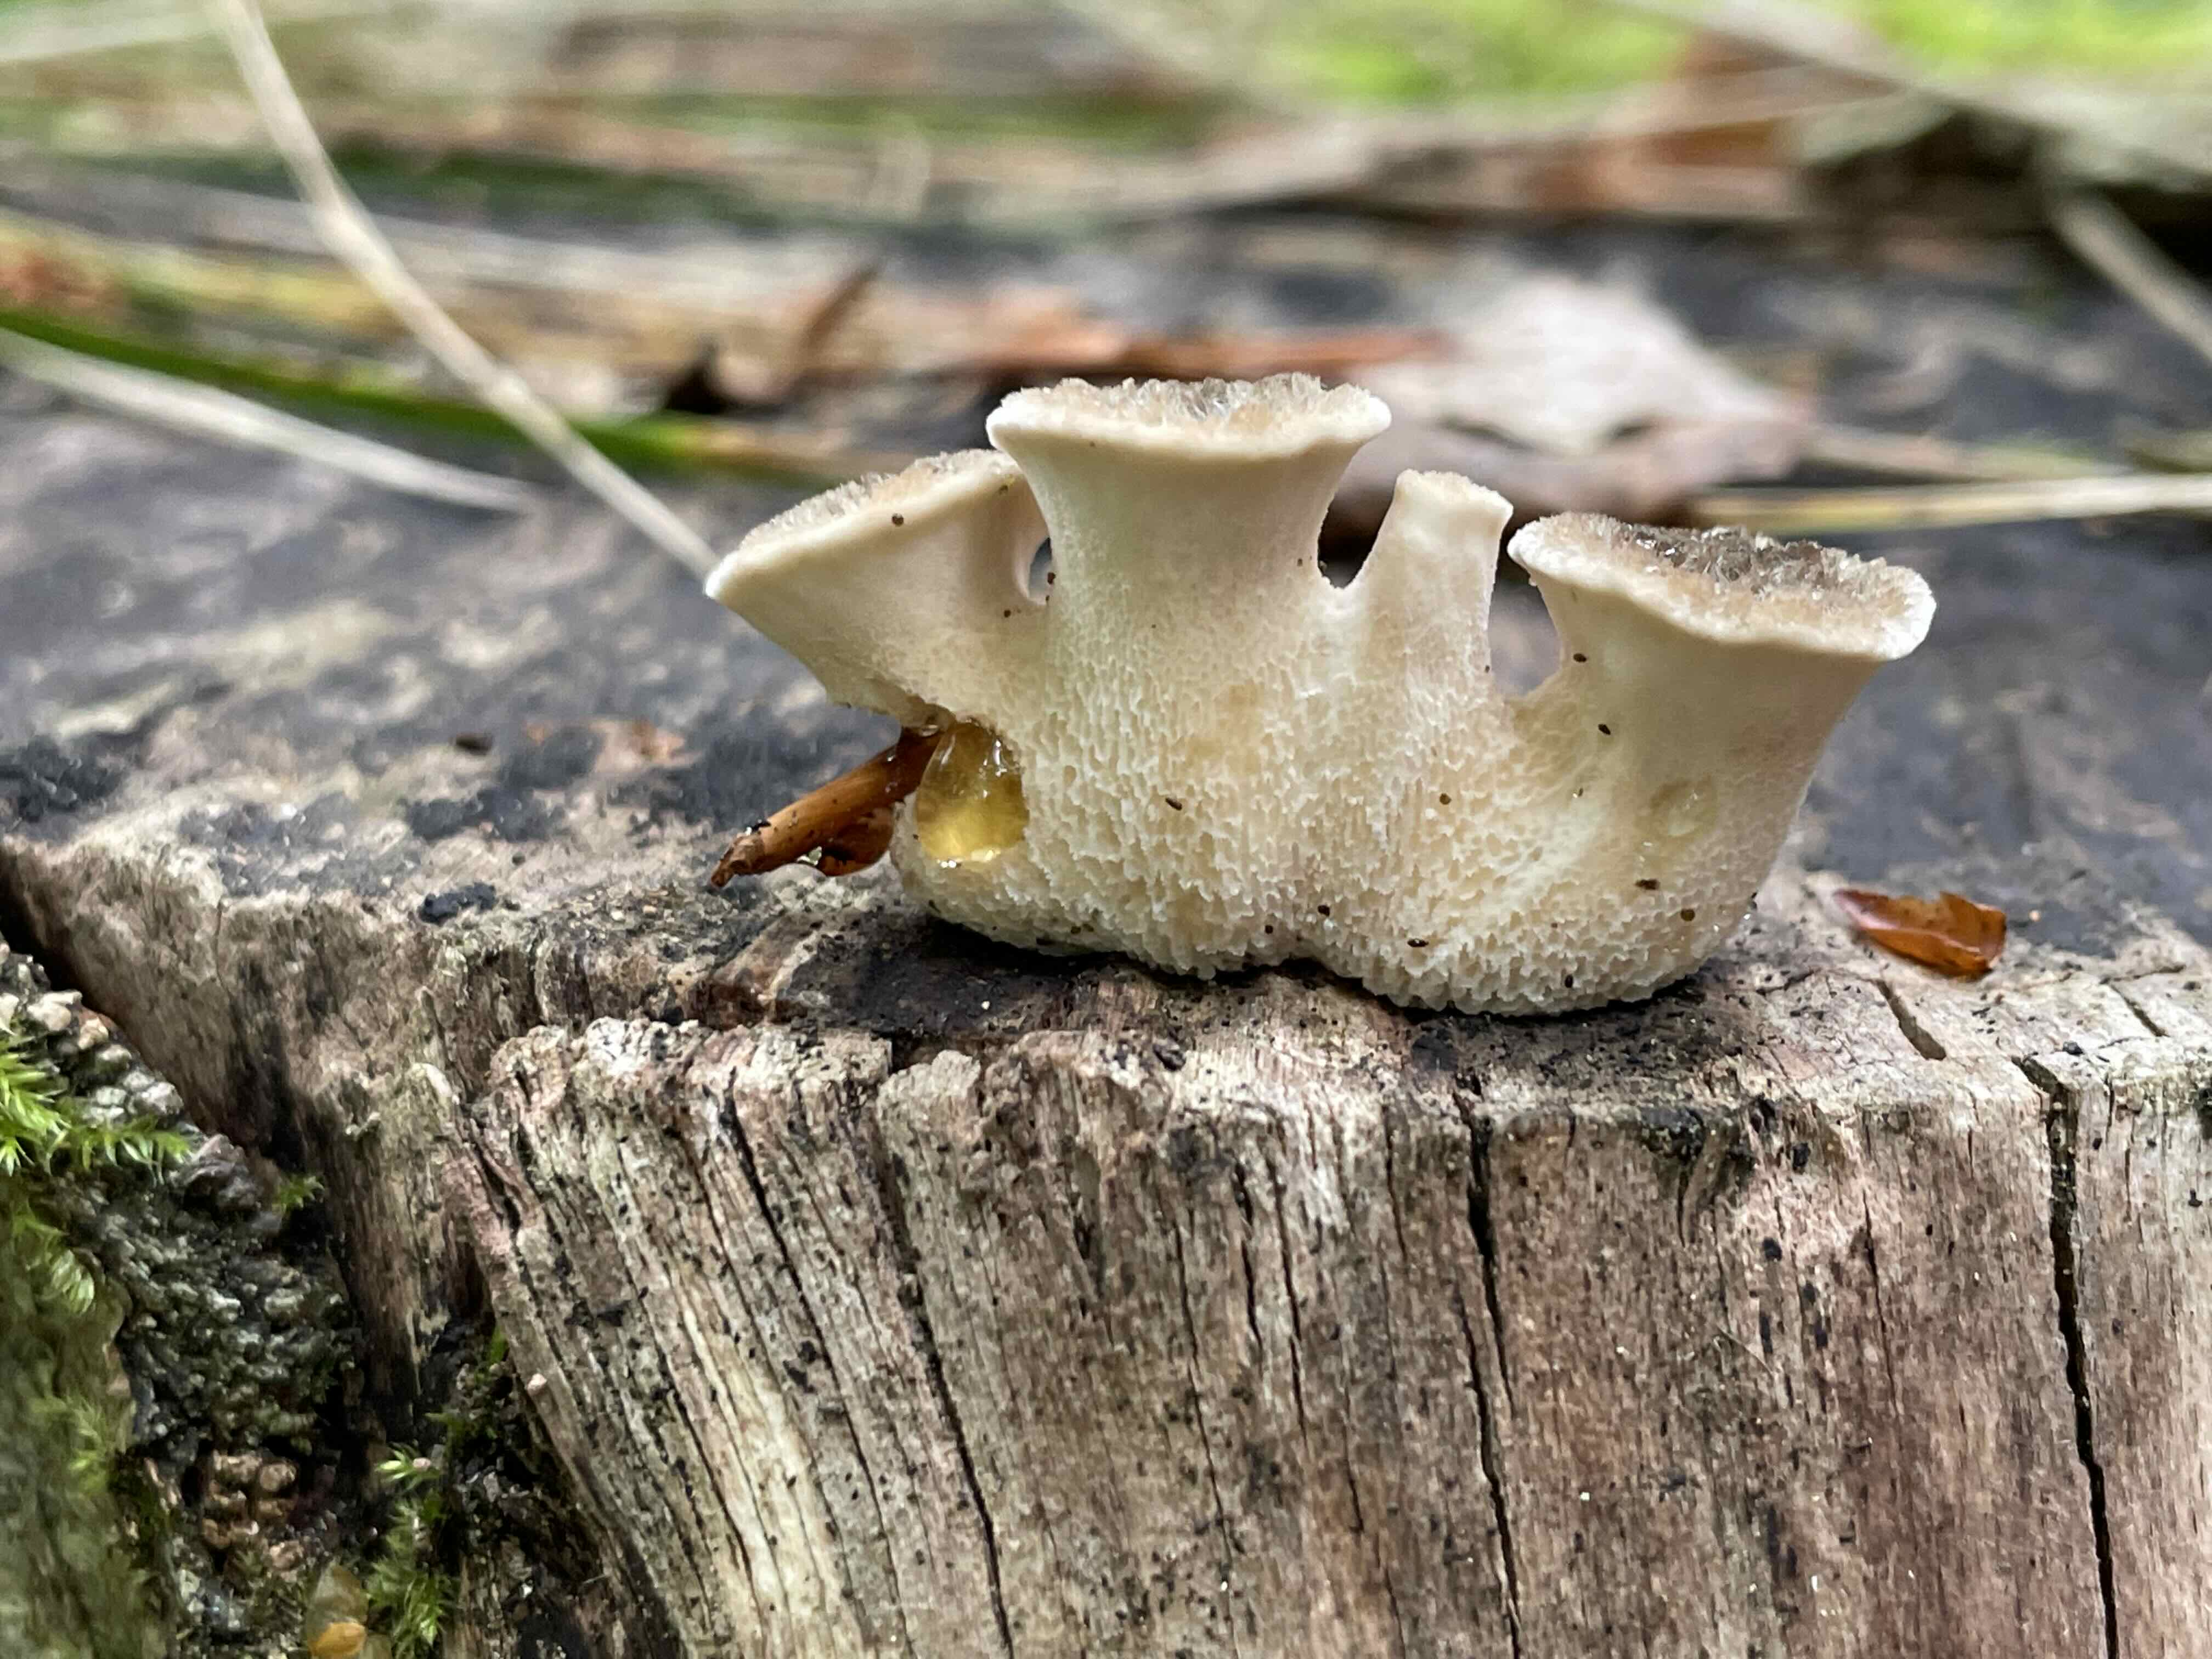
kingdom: Fungi
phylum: Basidiomycota
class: Agaricomycetes
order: Polyporales
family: Polyporaceae
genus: Polyporus
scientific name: Polyporus tuberaster
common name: knoldet stilkporesvamp
